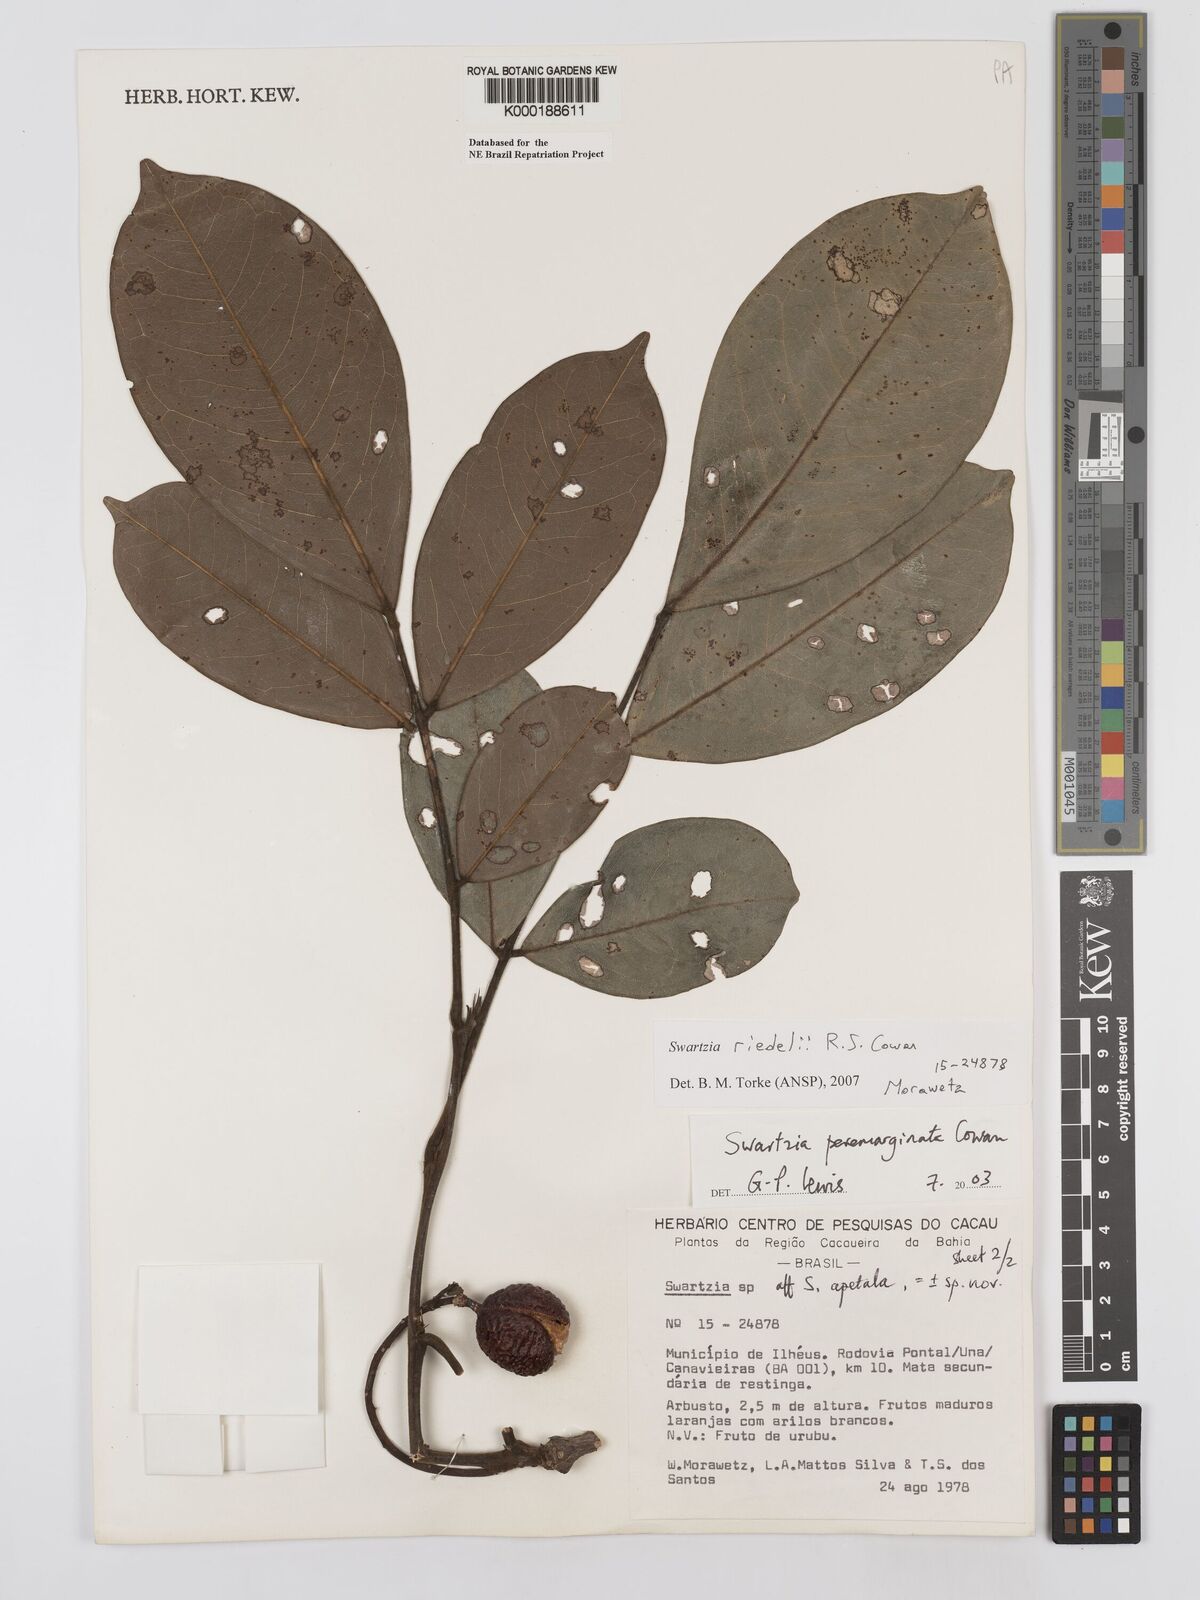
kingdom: Plantae
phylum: Tracheophyta
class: Magnoliopsida
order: Fabales
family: Fabaceae
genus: Swartzia
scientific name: Swartzia riedelii
